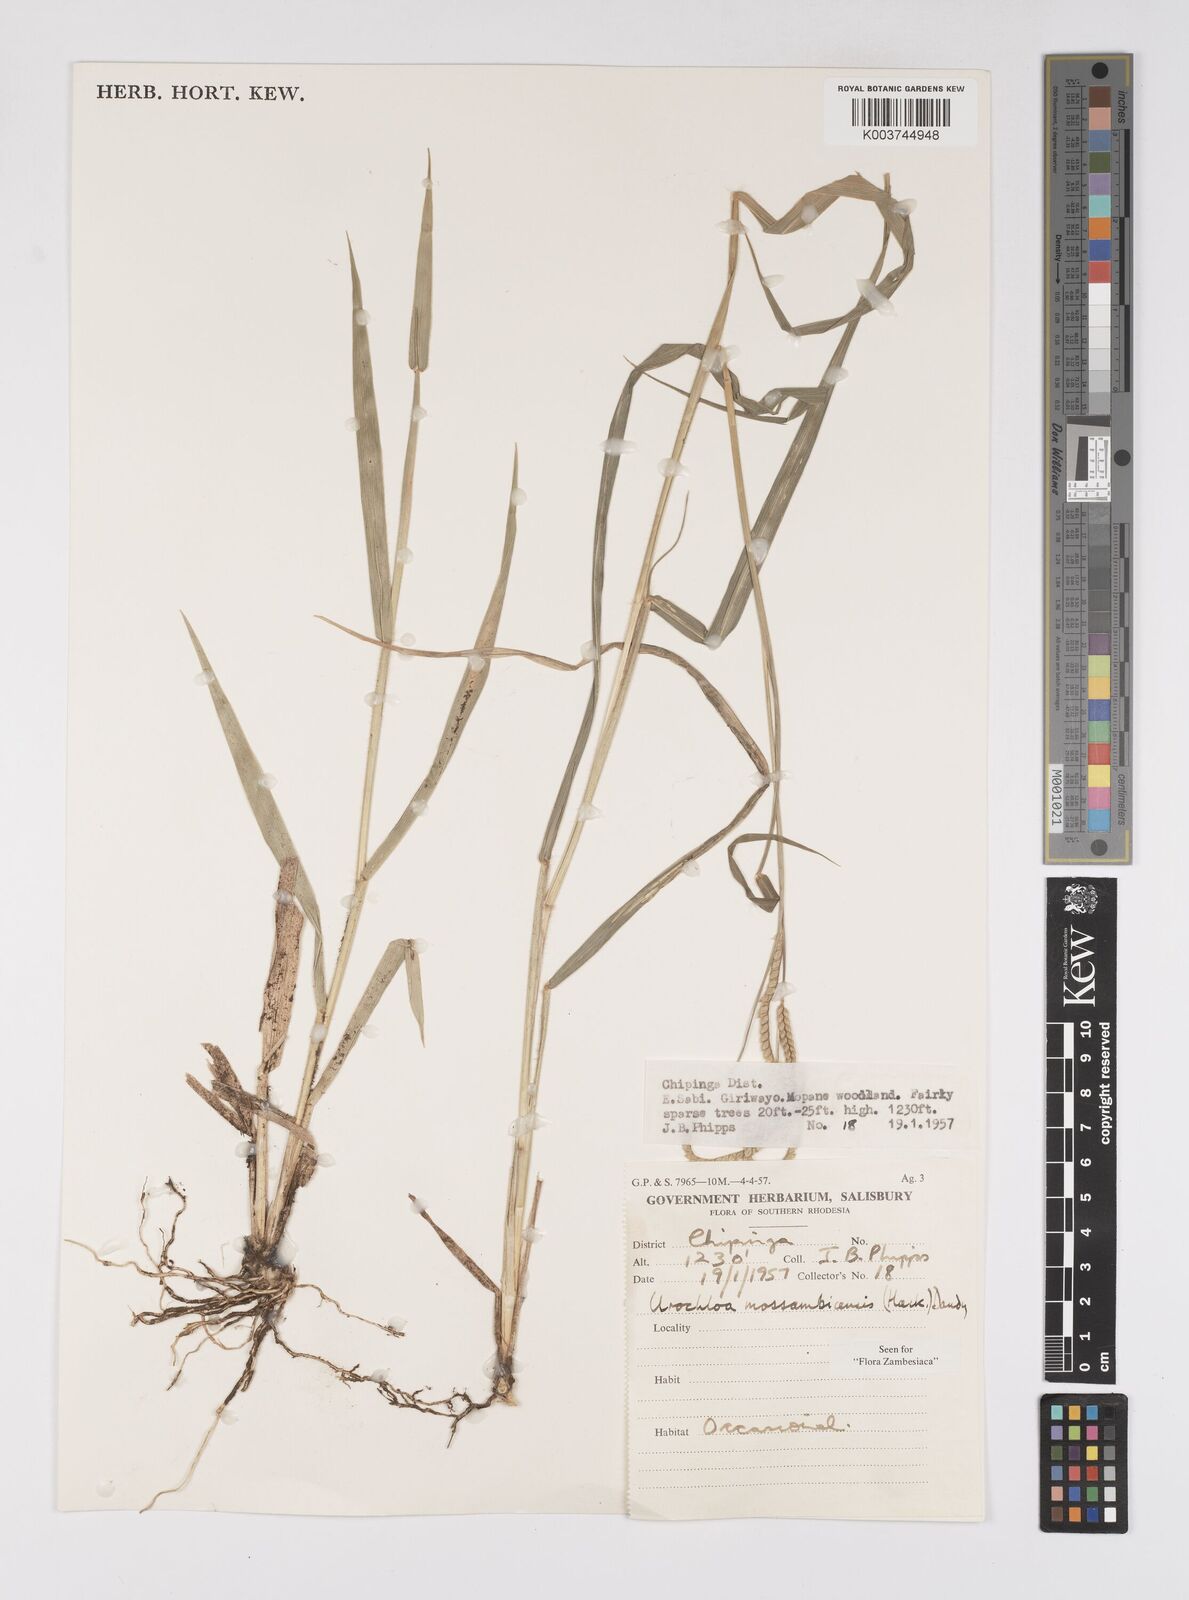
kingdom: Plantae
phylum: Tracheophyta
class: Liliopsida
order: Poales
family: Poaceae
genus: Urochloa
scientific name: Urochloa trichopus
